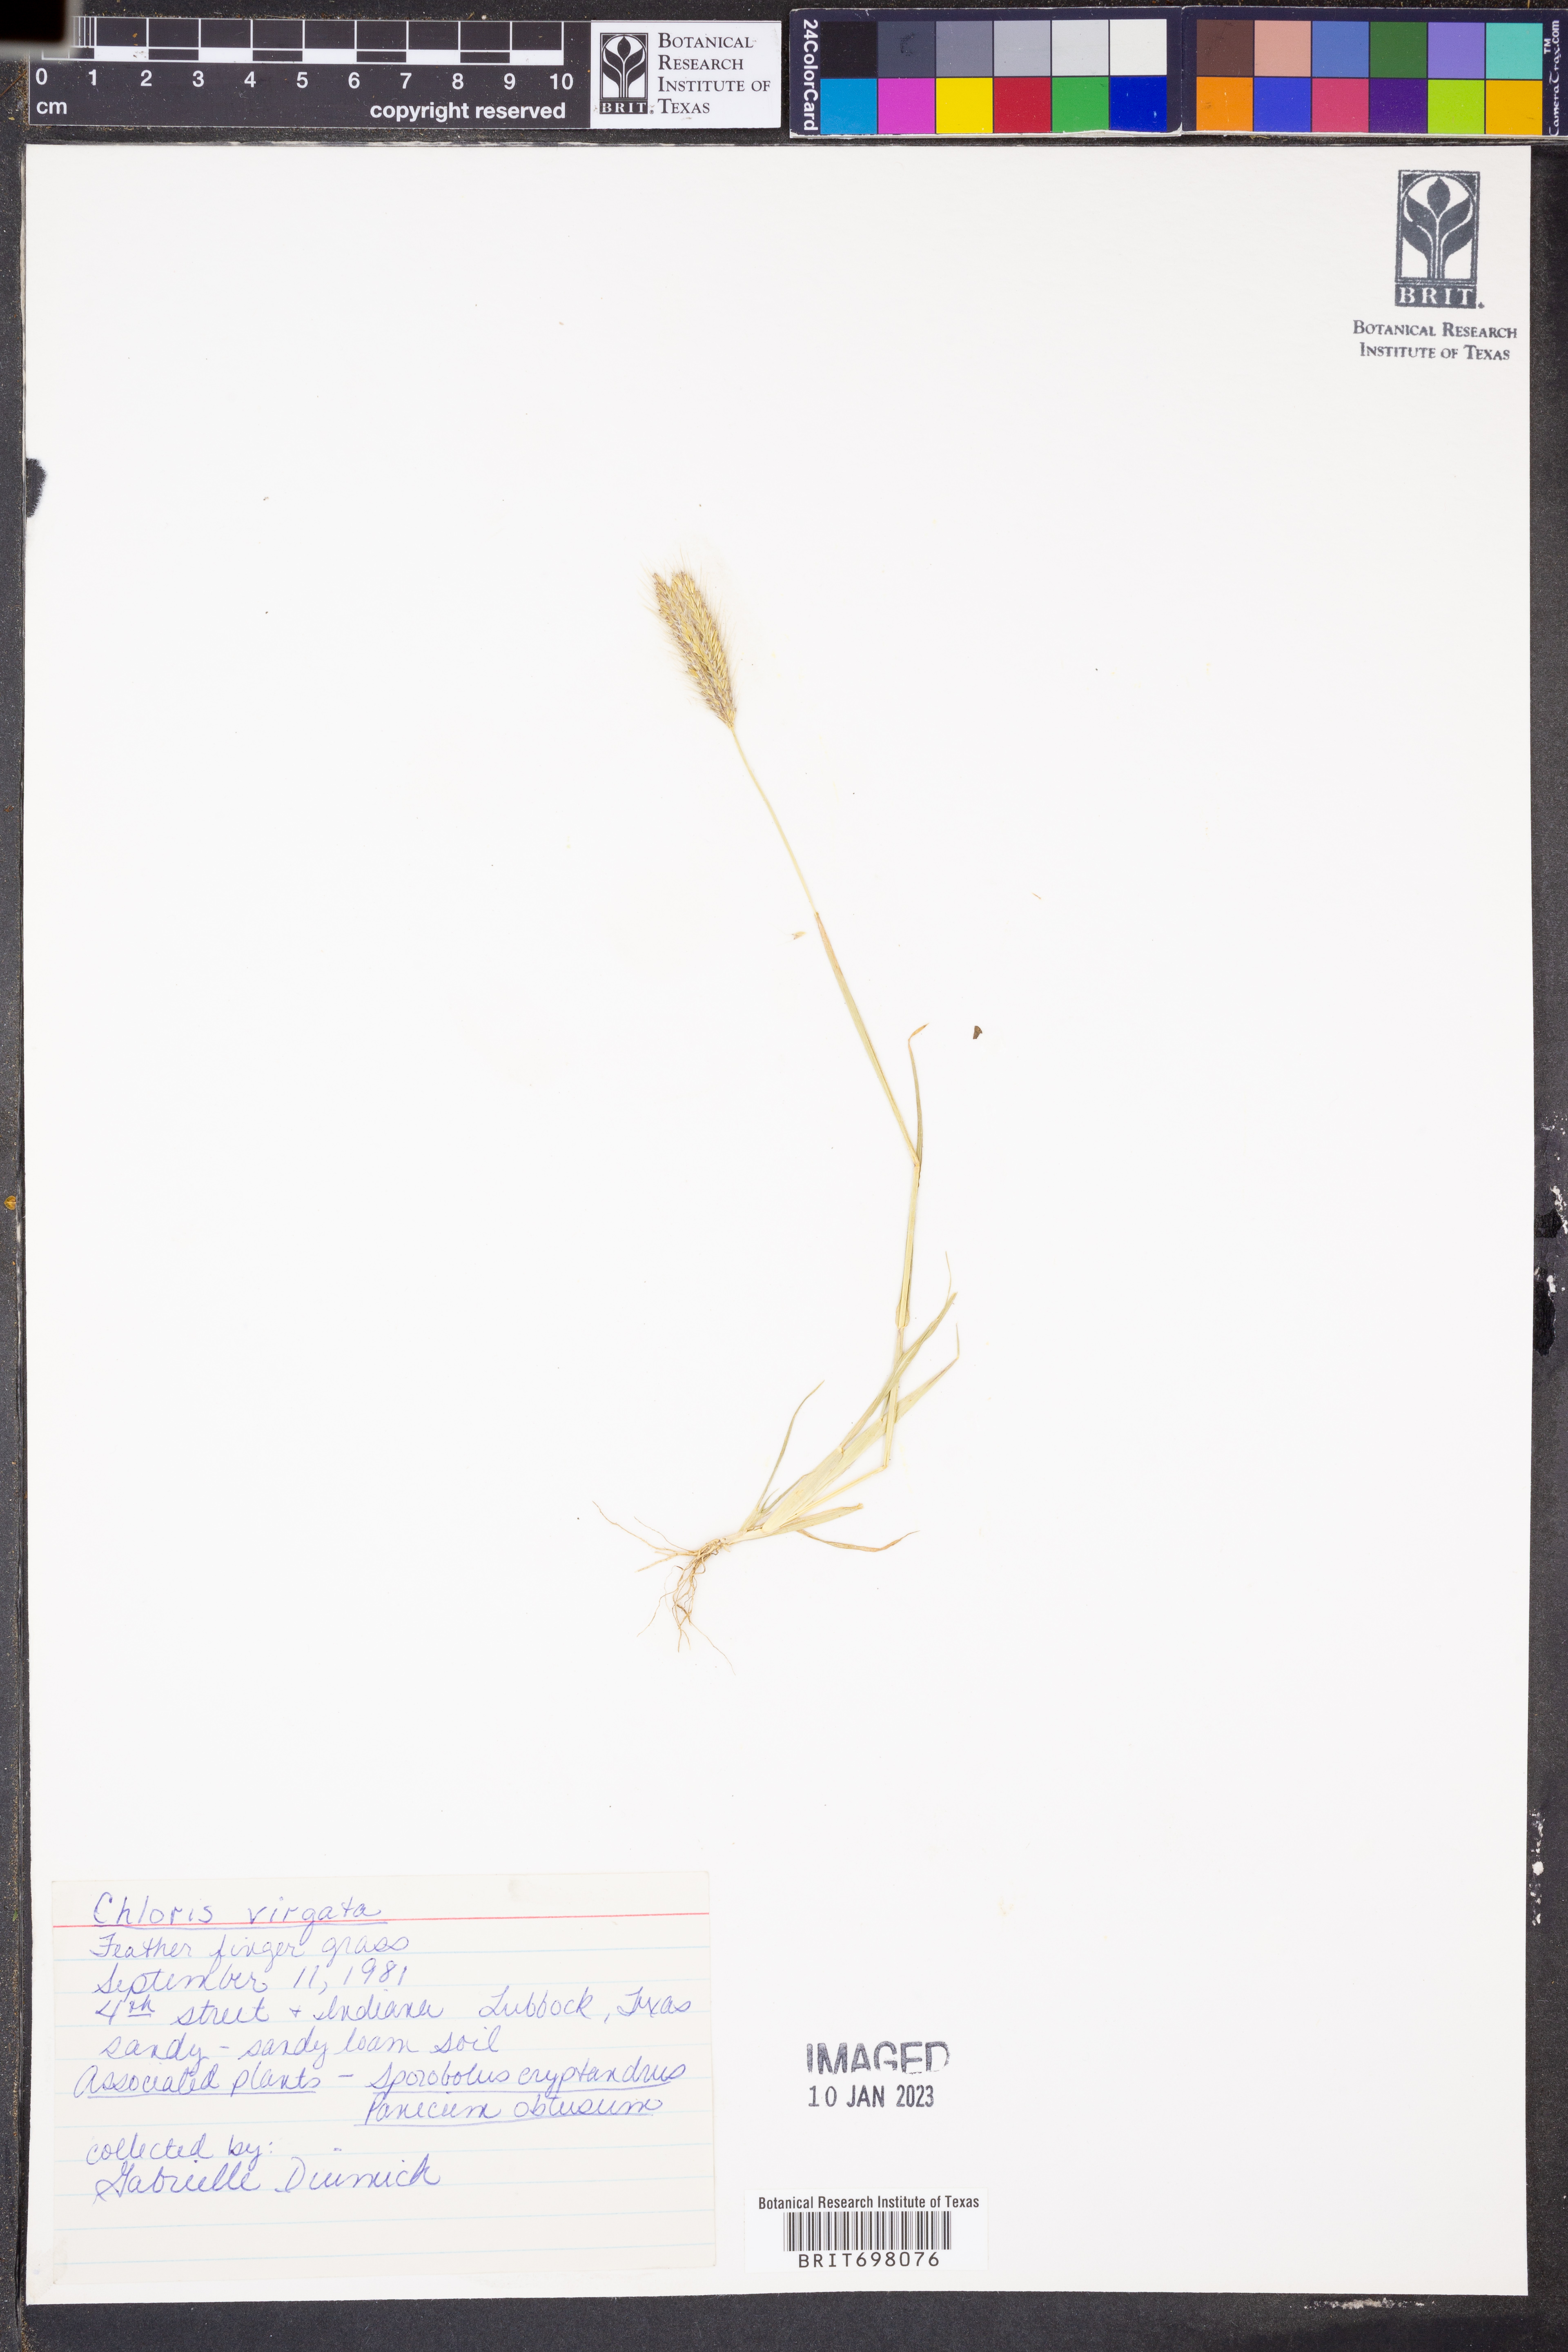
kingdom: Plantae
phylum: Tracheophyta
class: Liliopsida
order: Poales
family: Poaceae
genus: Chloris
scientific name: Chloris virgata
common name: Feathery rhodes-grass
